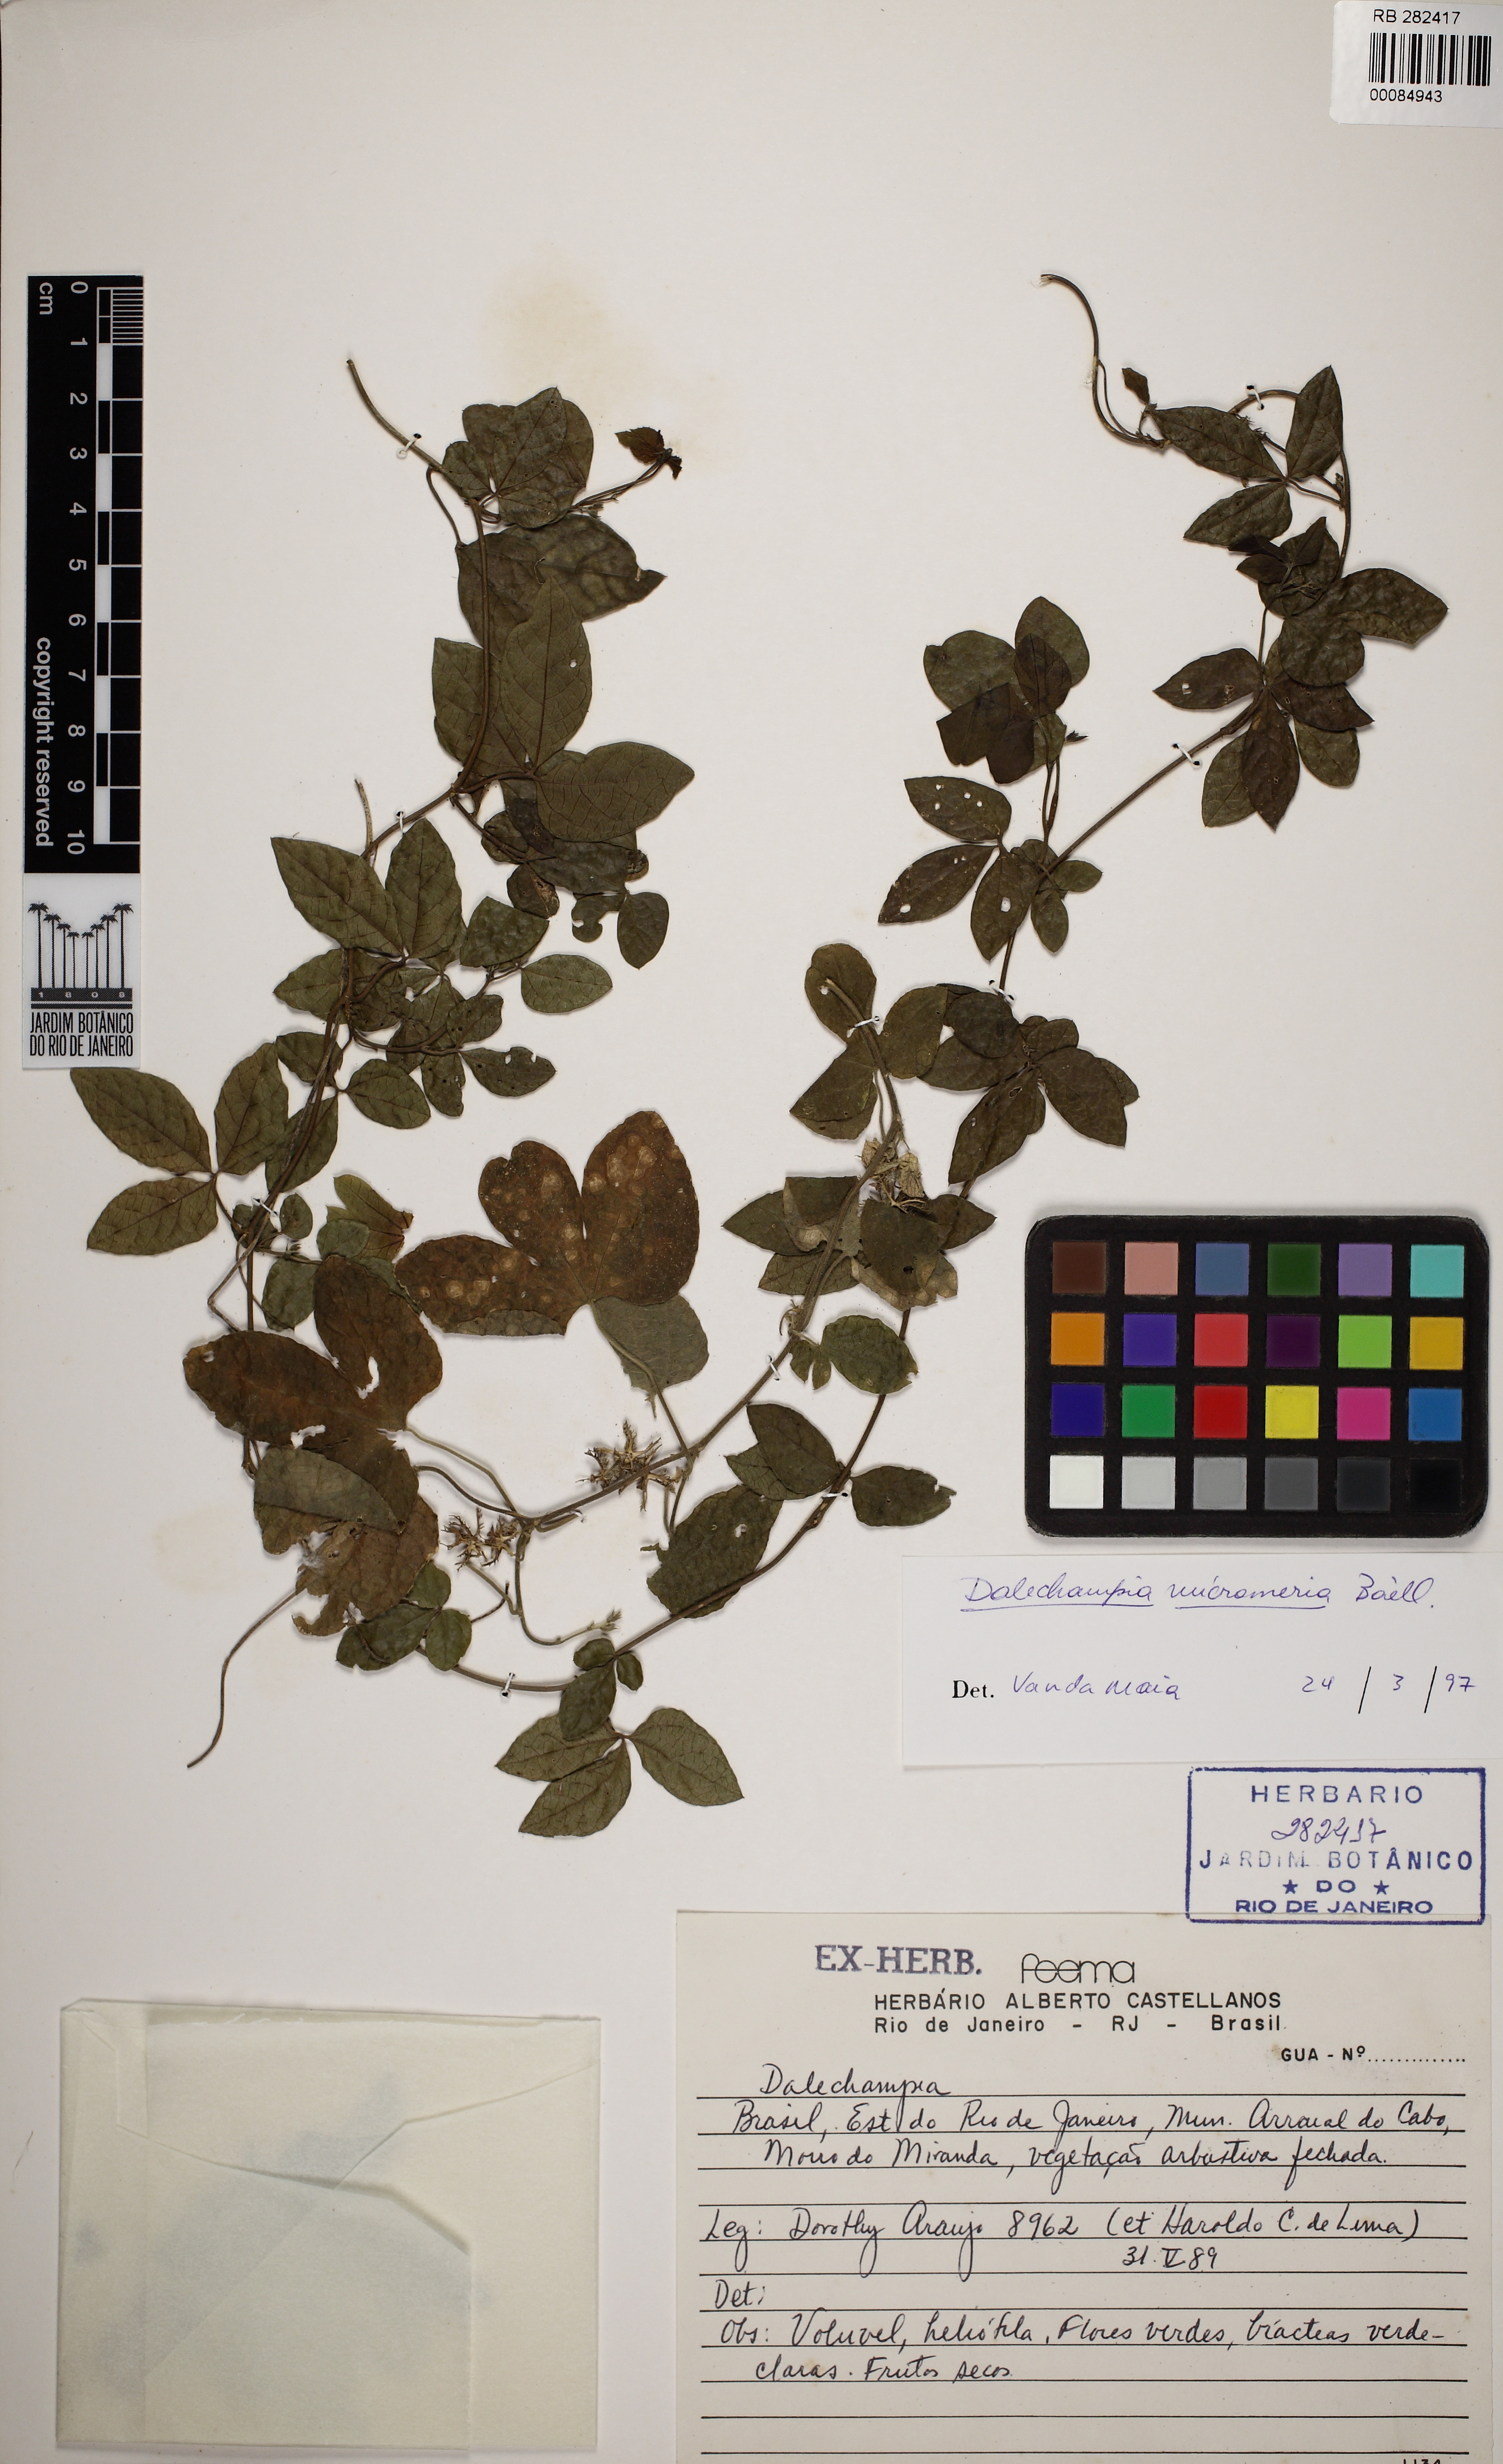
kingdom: Plantae
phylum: Tracheophyta
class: Magnoliopsida
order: Malpighiales
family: Euphorbiaceae
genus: Dalechampia
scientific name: Dalechampia micromeria
